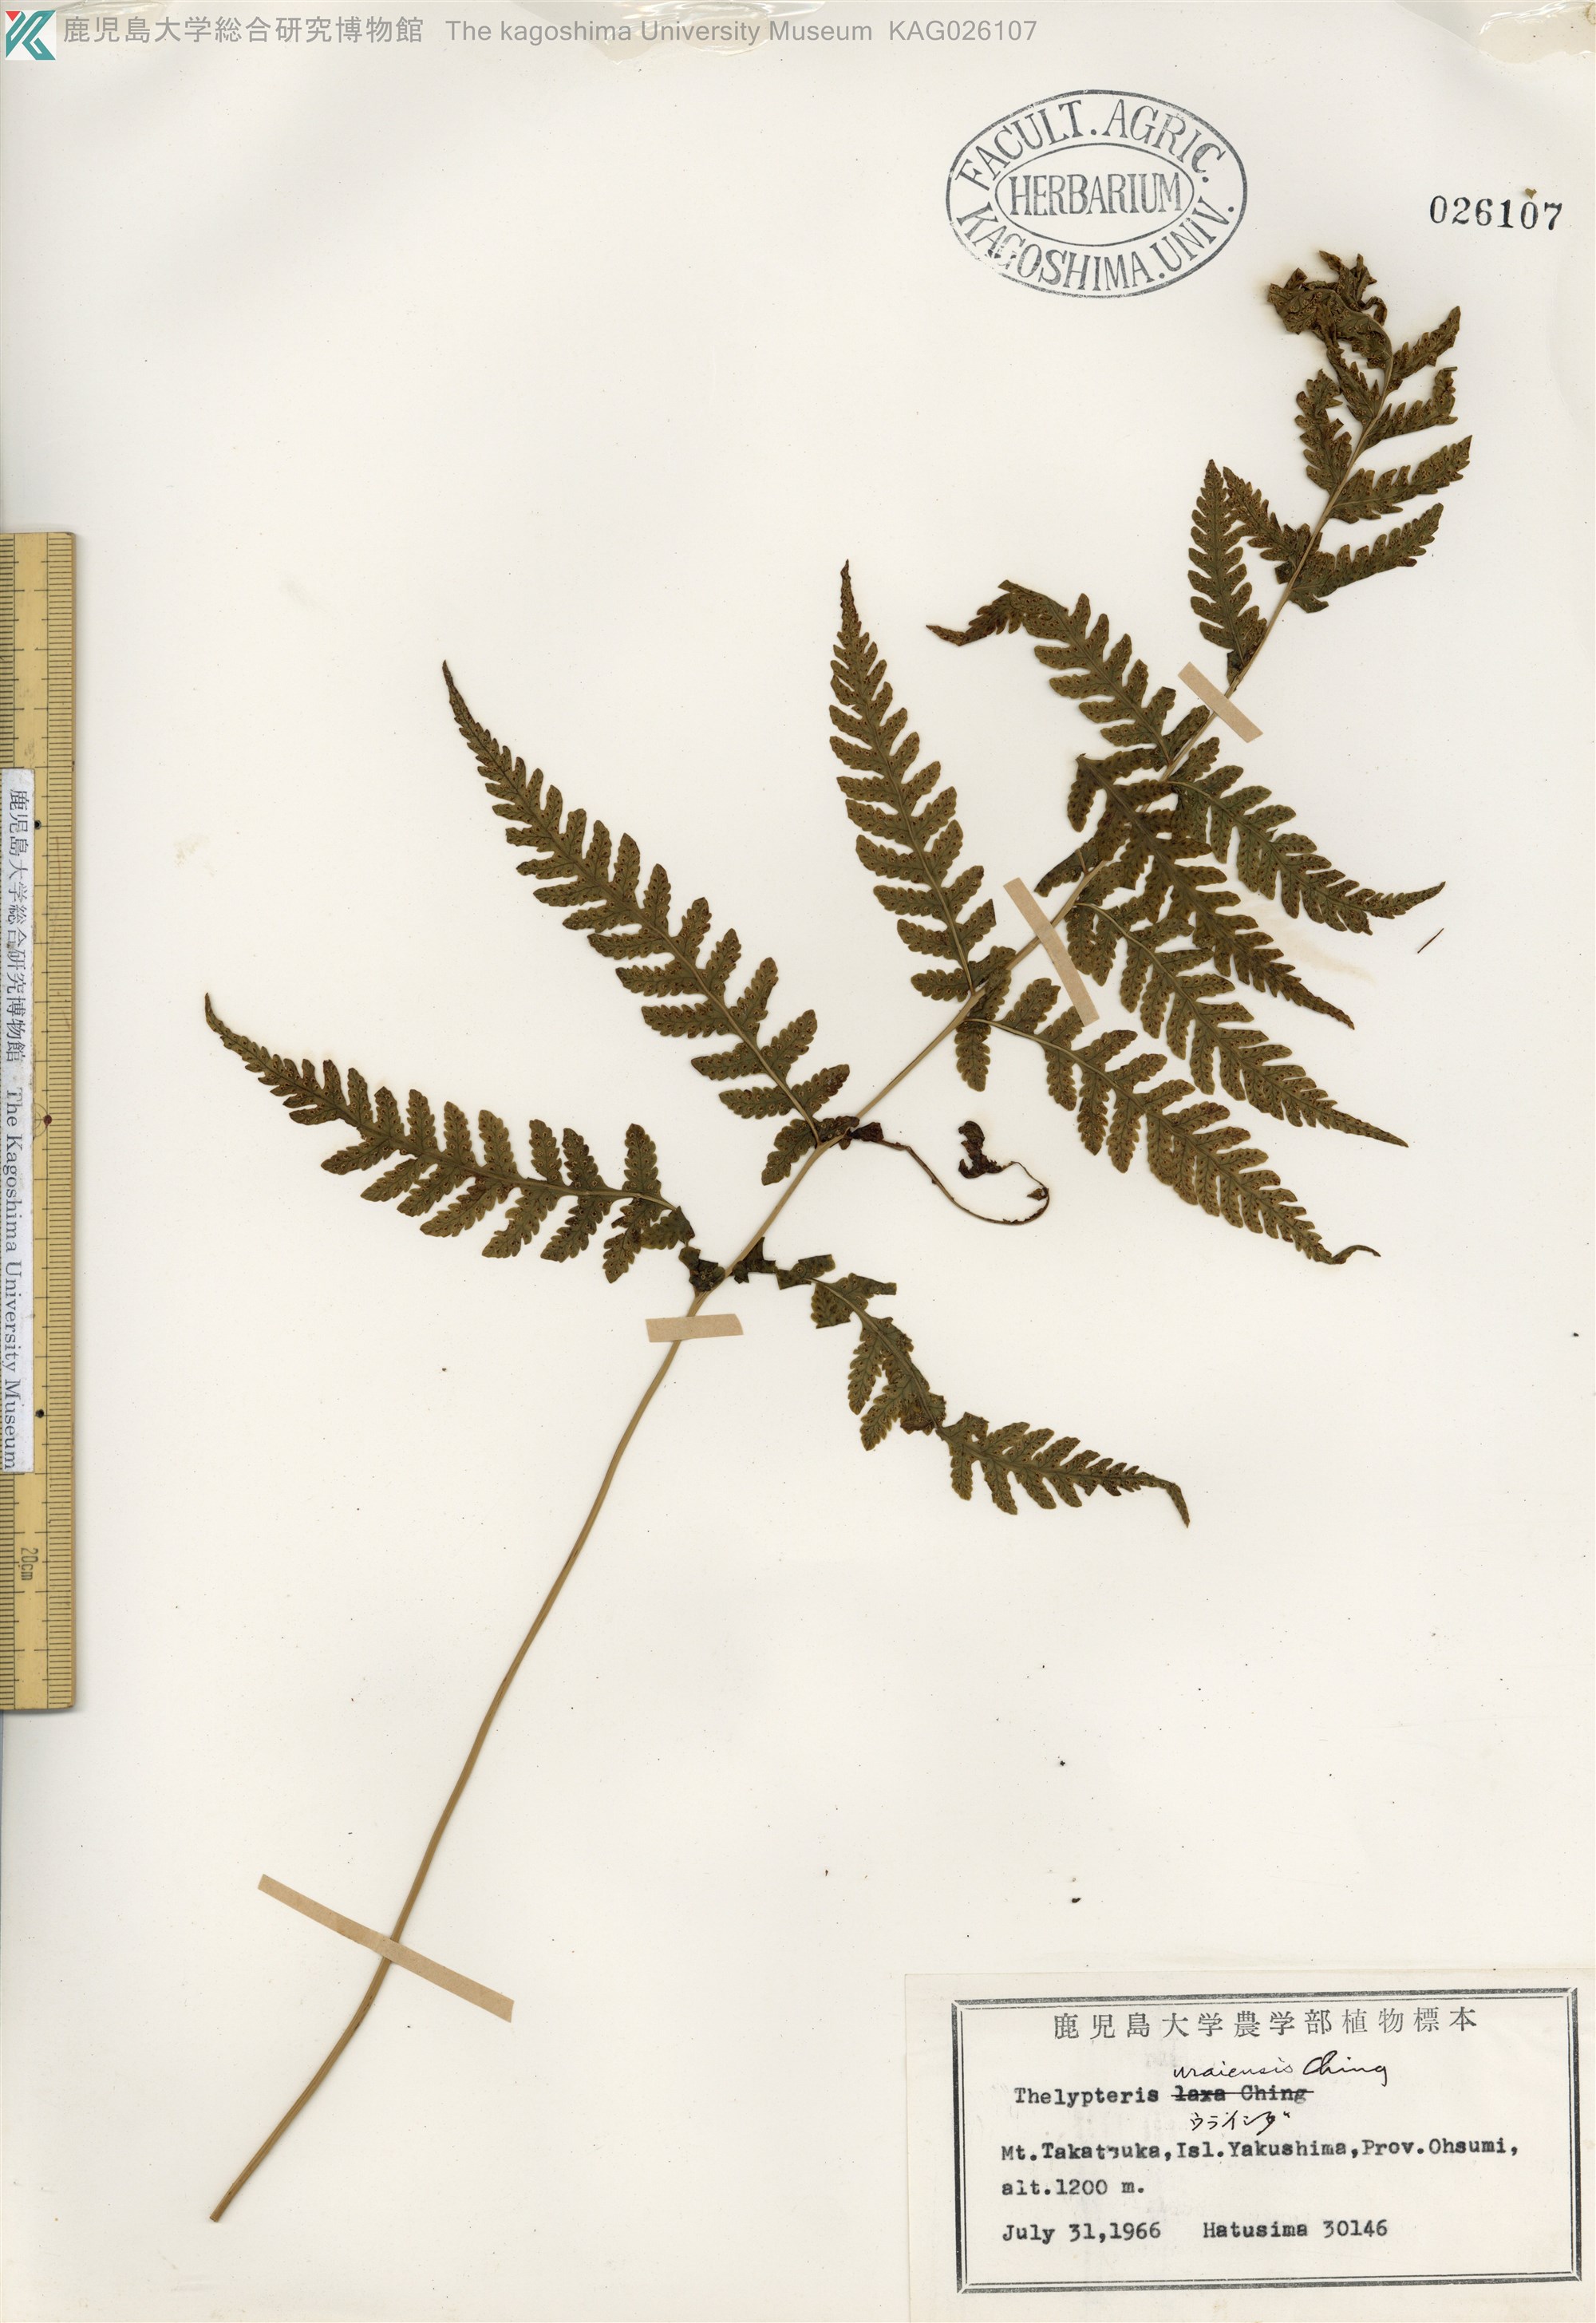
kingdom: Plantae
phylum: Tracheophyta
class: Polypodiopsida
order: Polypodiales
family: Thelypteridaceae
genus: Metathelypteris
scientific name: Metathelypteris uraiensis
